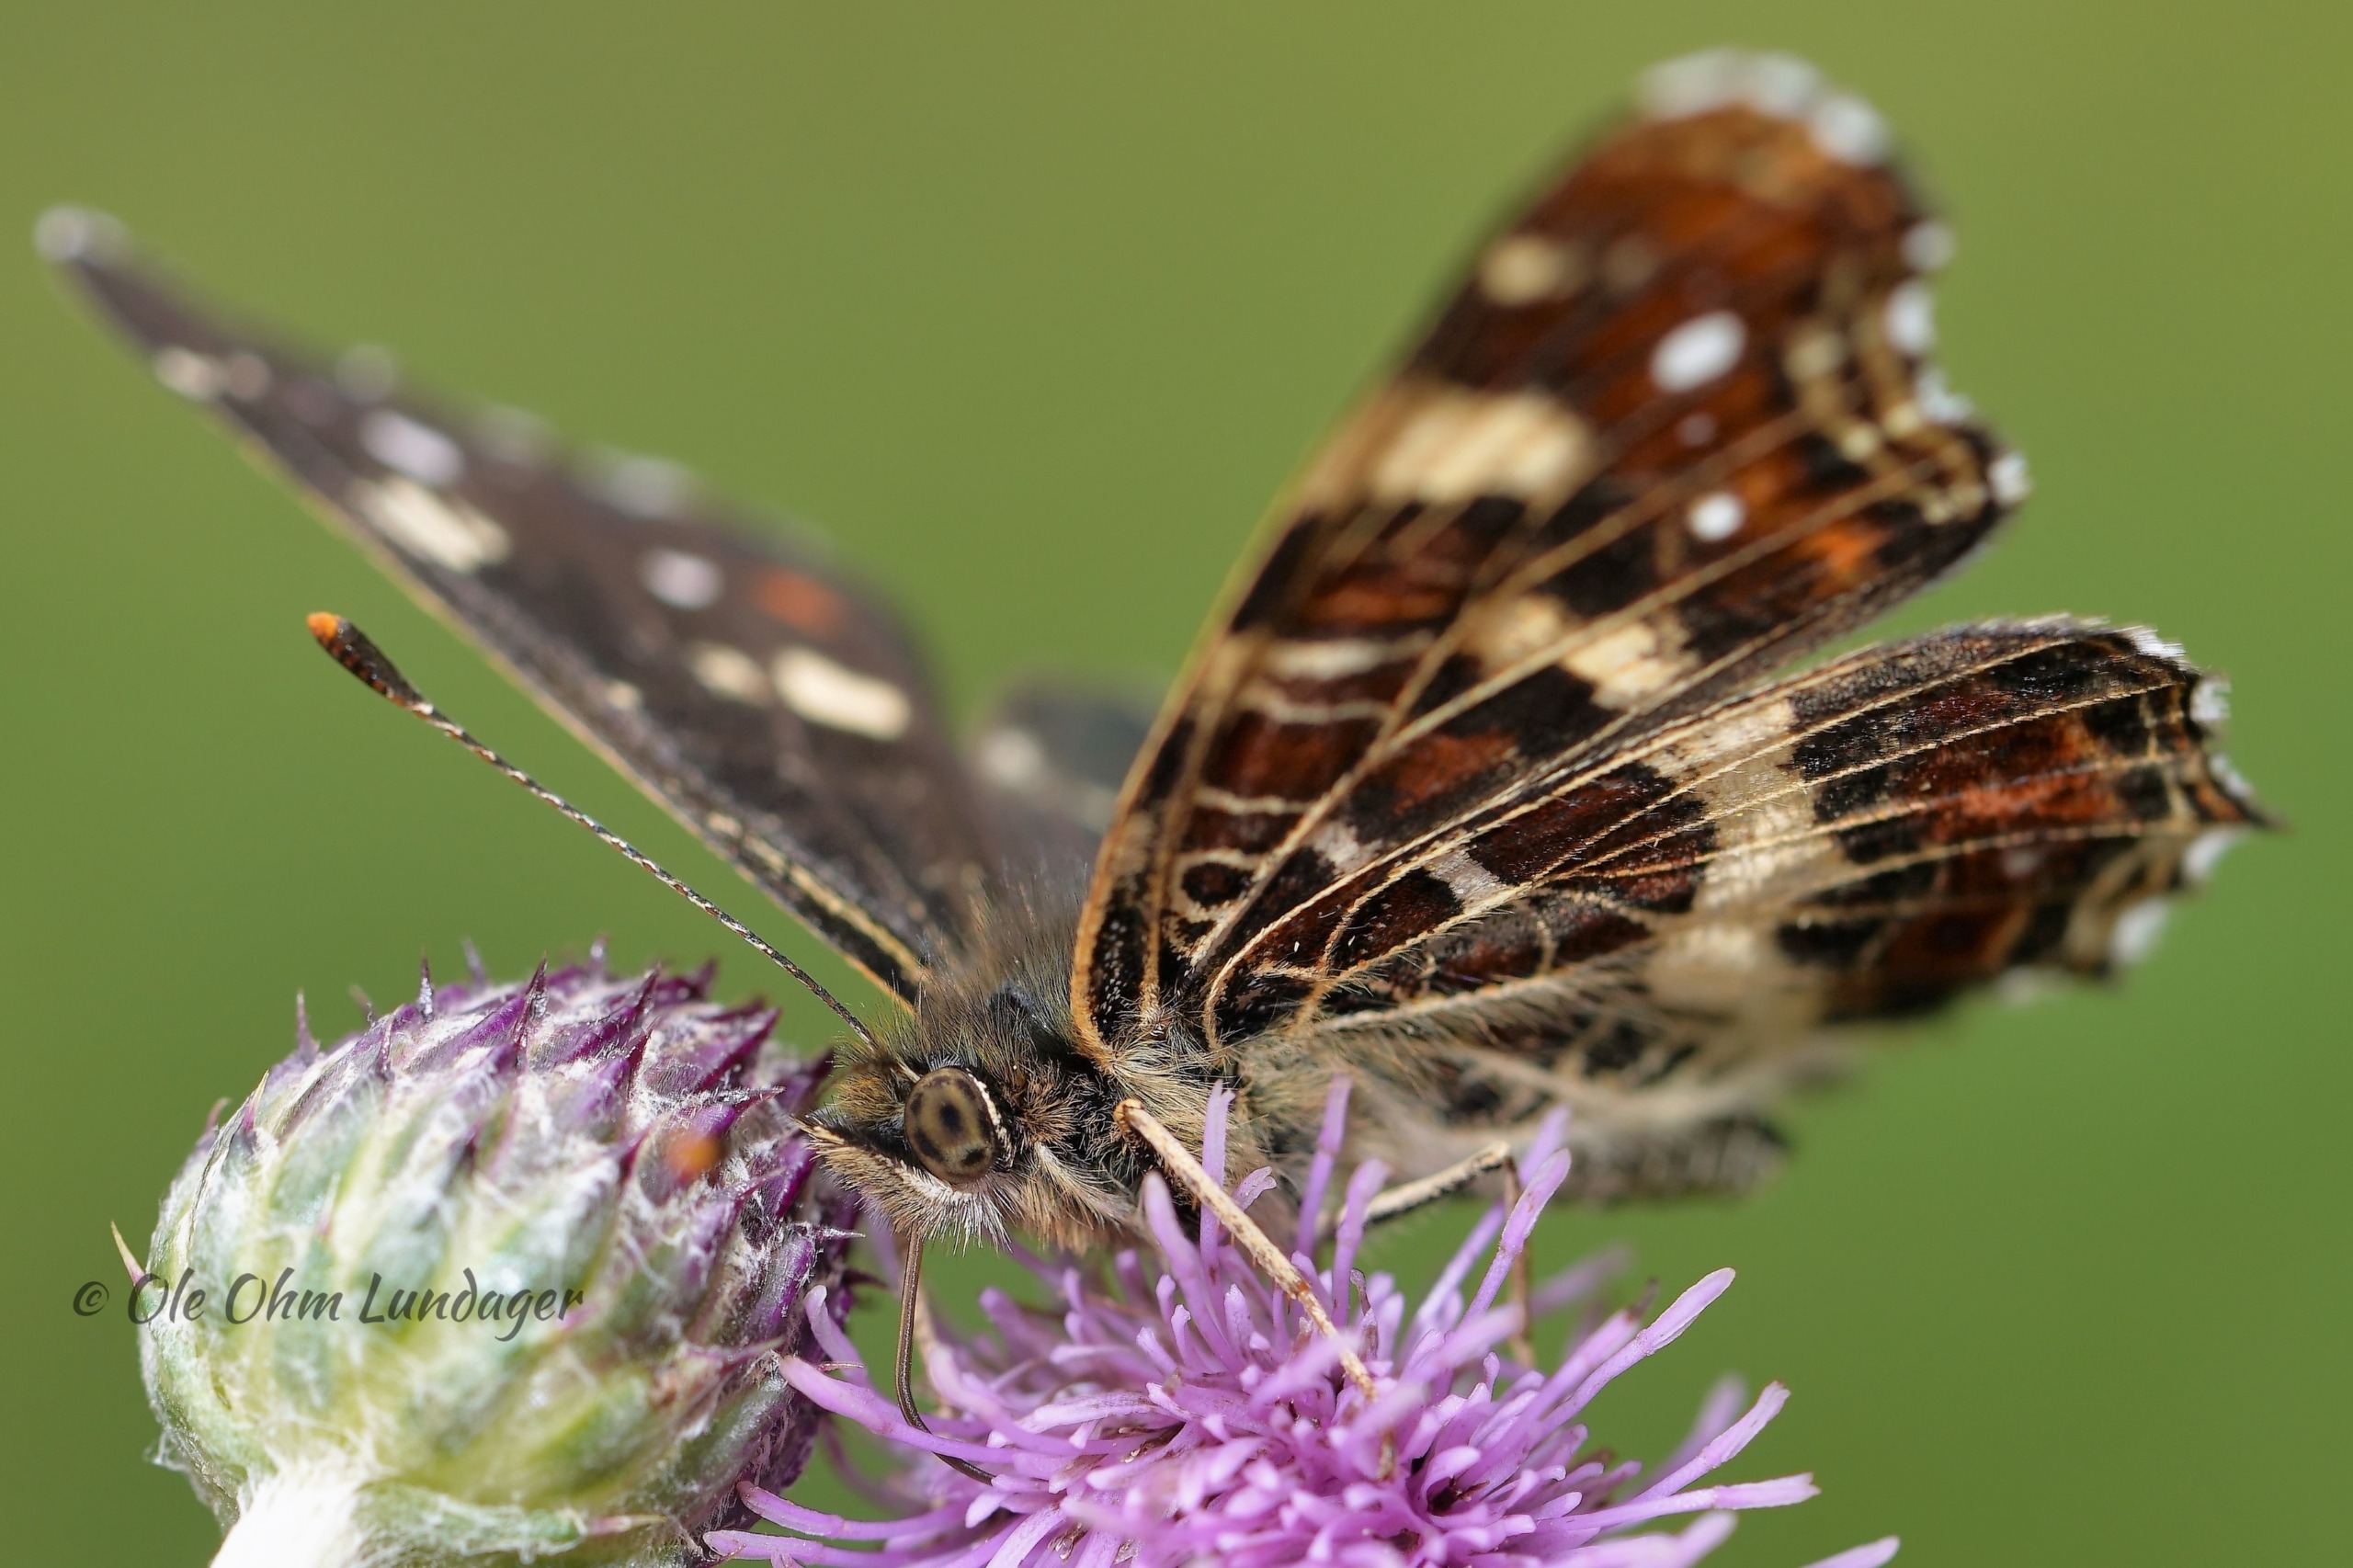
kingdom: Animalia
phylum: Arthropoda
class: Insecta
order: Lepidoptera
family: Nymphalidae
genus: Araschnia
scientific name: Araschnia levana
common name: Nældesommerfugl
